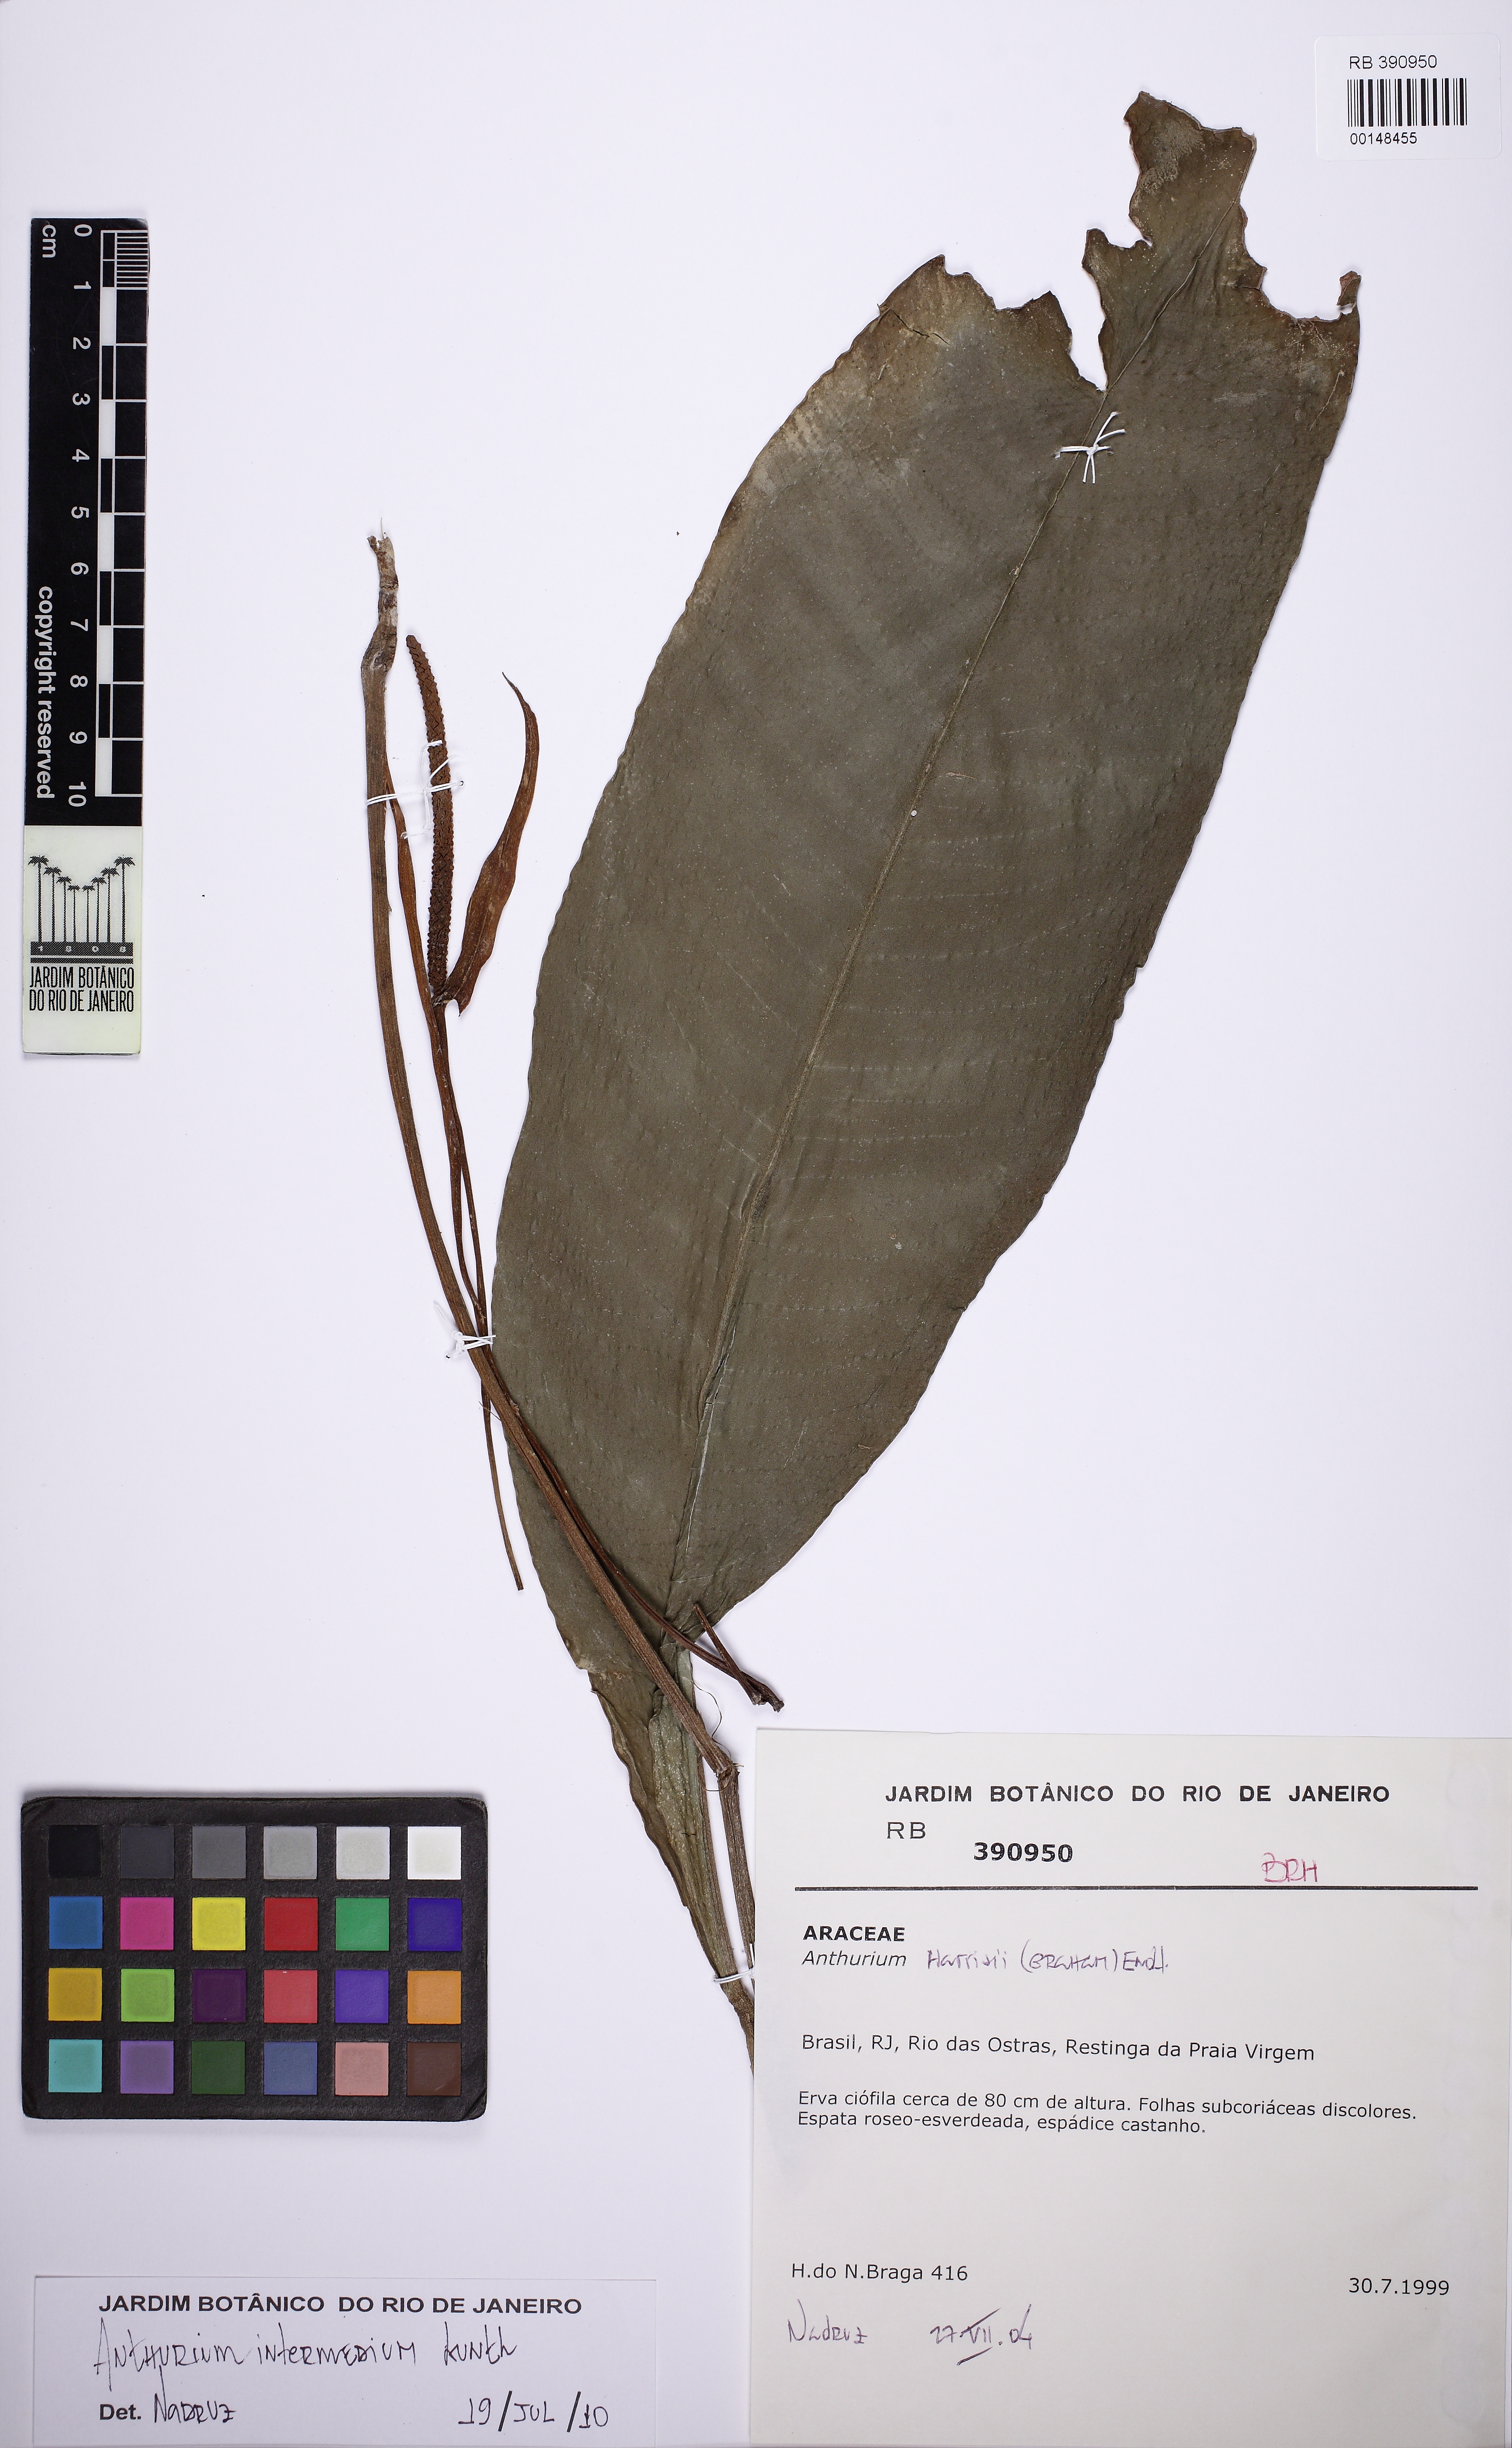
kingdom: Plantae
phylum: Tracheophyta
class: Liliopsida
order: Alismatales
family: Araceae
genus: Anthurium
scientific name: Anthurium intermedium
